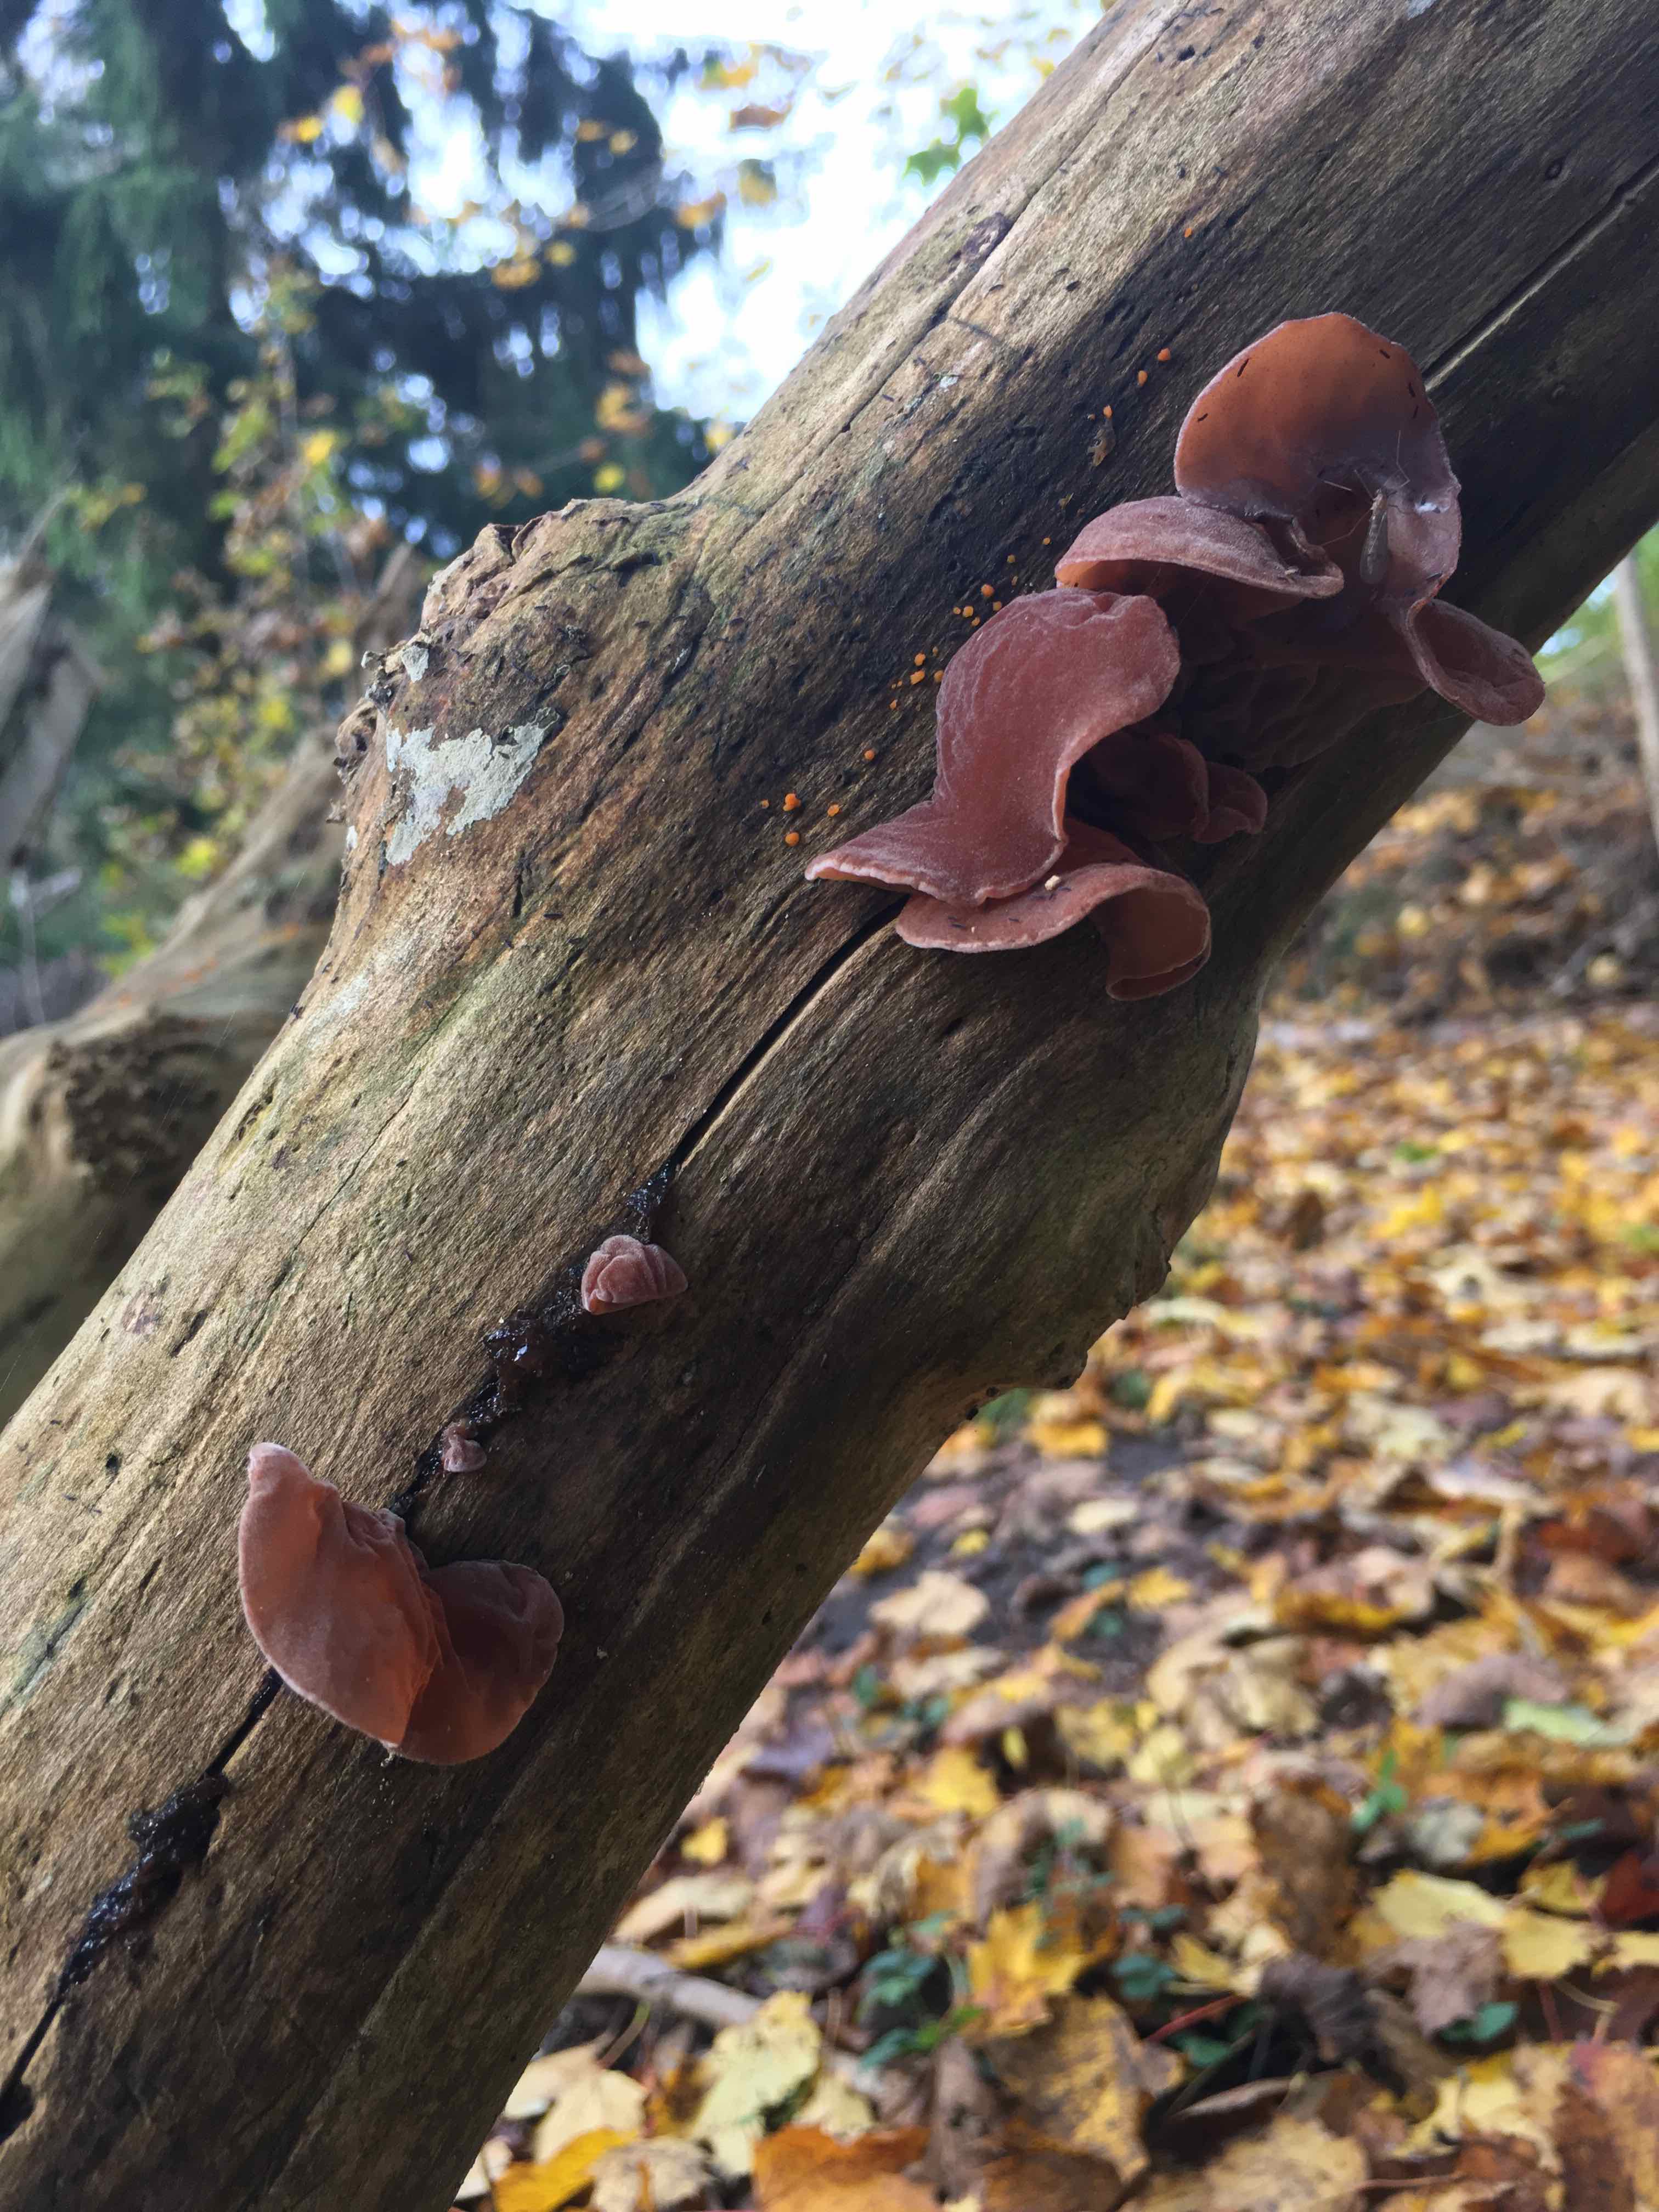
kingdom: Fungi
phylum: Basidiomycota
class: Agaricomycetes
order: Auriculariales
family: Auriculariaceae
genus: Auricularia
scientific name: Auricularia auricula-judae
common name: almindelig judasøre
